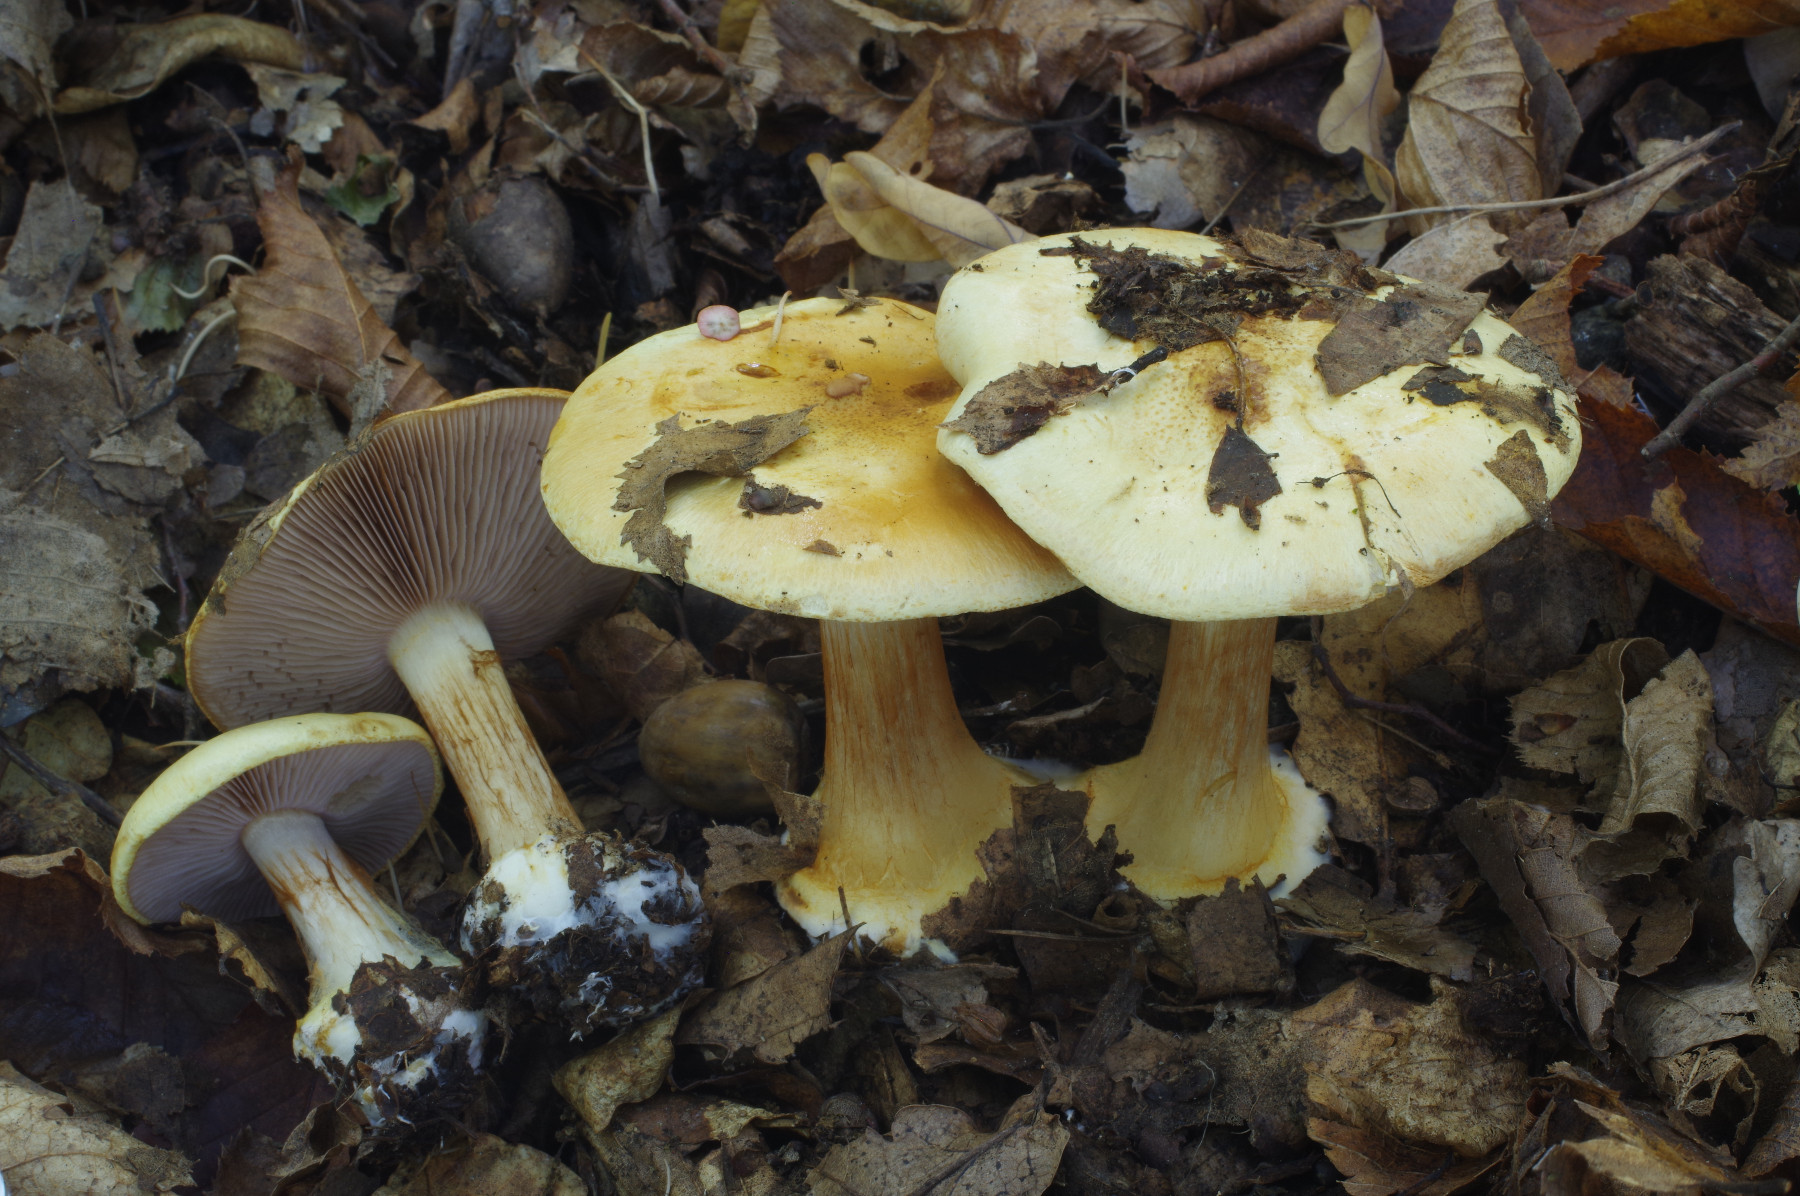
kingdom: Fungi
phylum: Basidiomycota
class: Agaricomycetes
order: Agaricales
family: Cortinariaceae
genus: Calonarius
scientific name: Calonarius sublilacinopes
